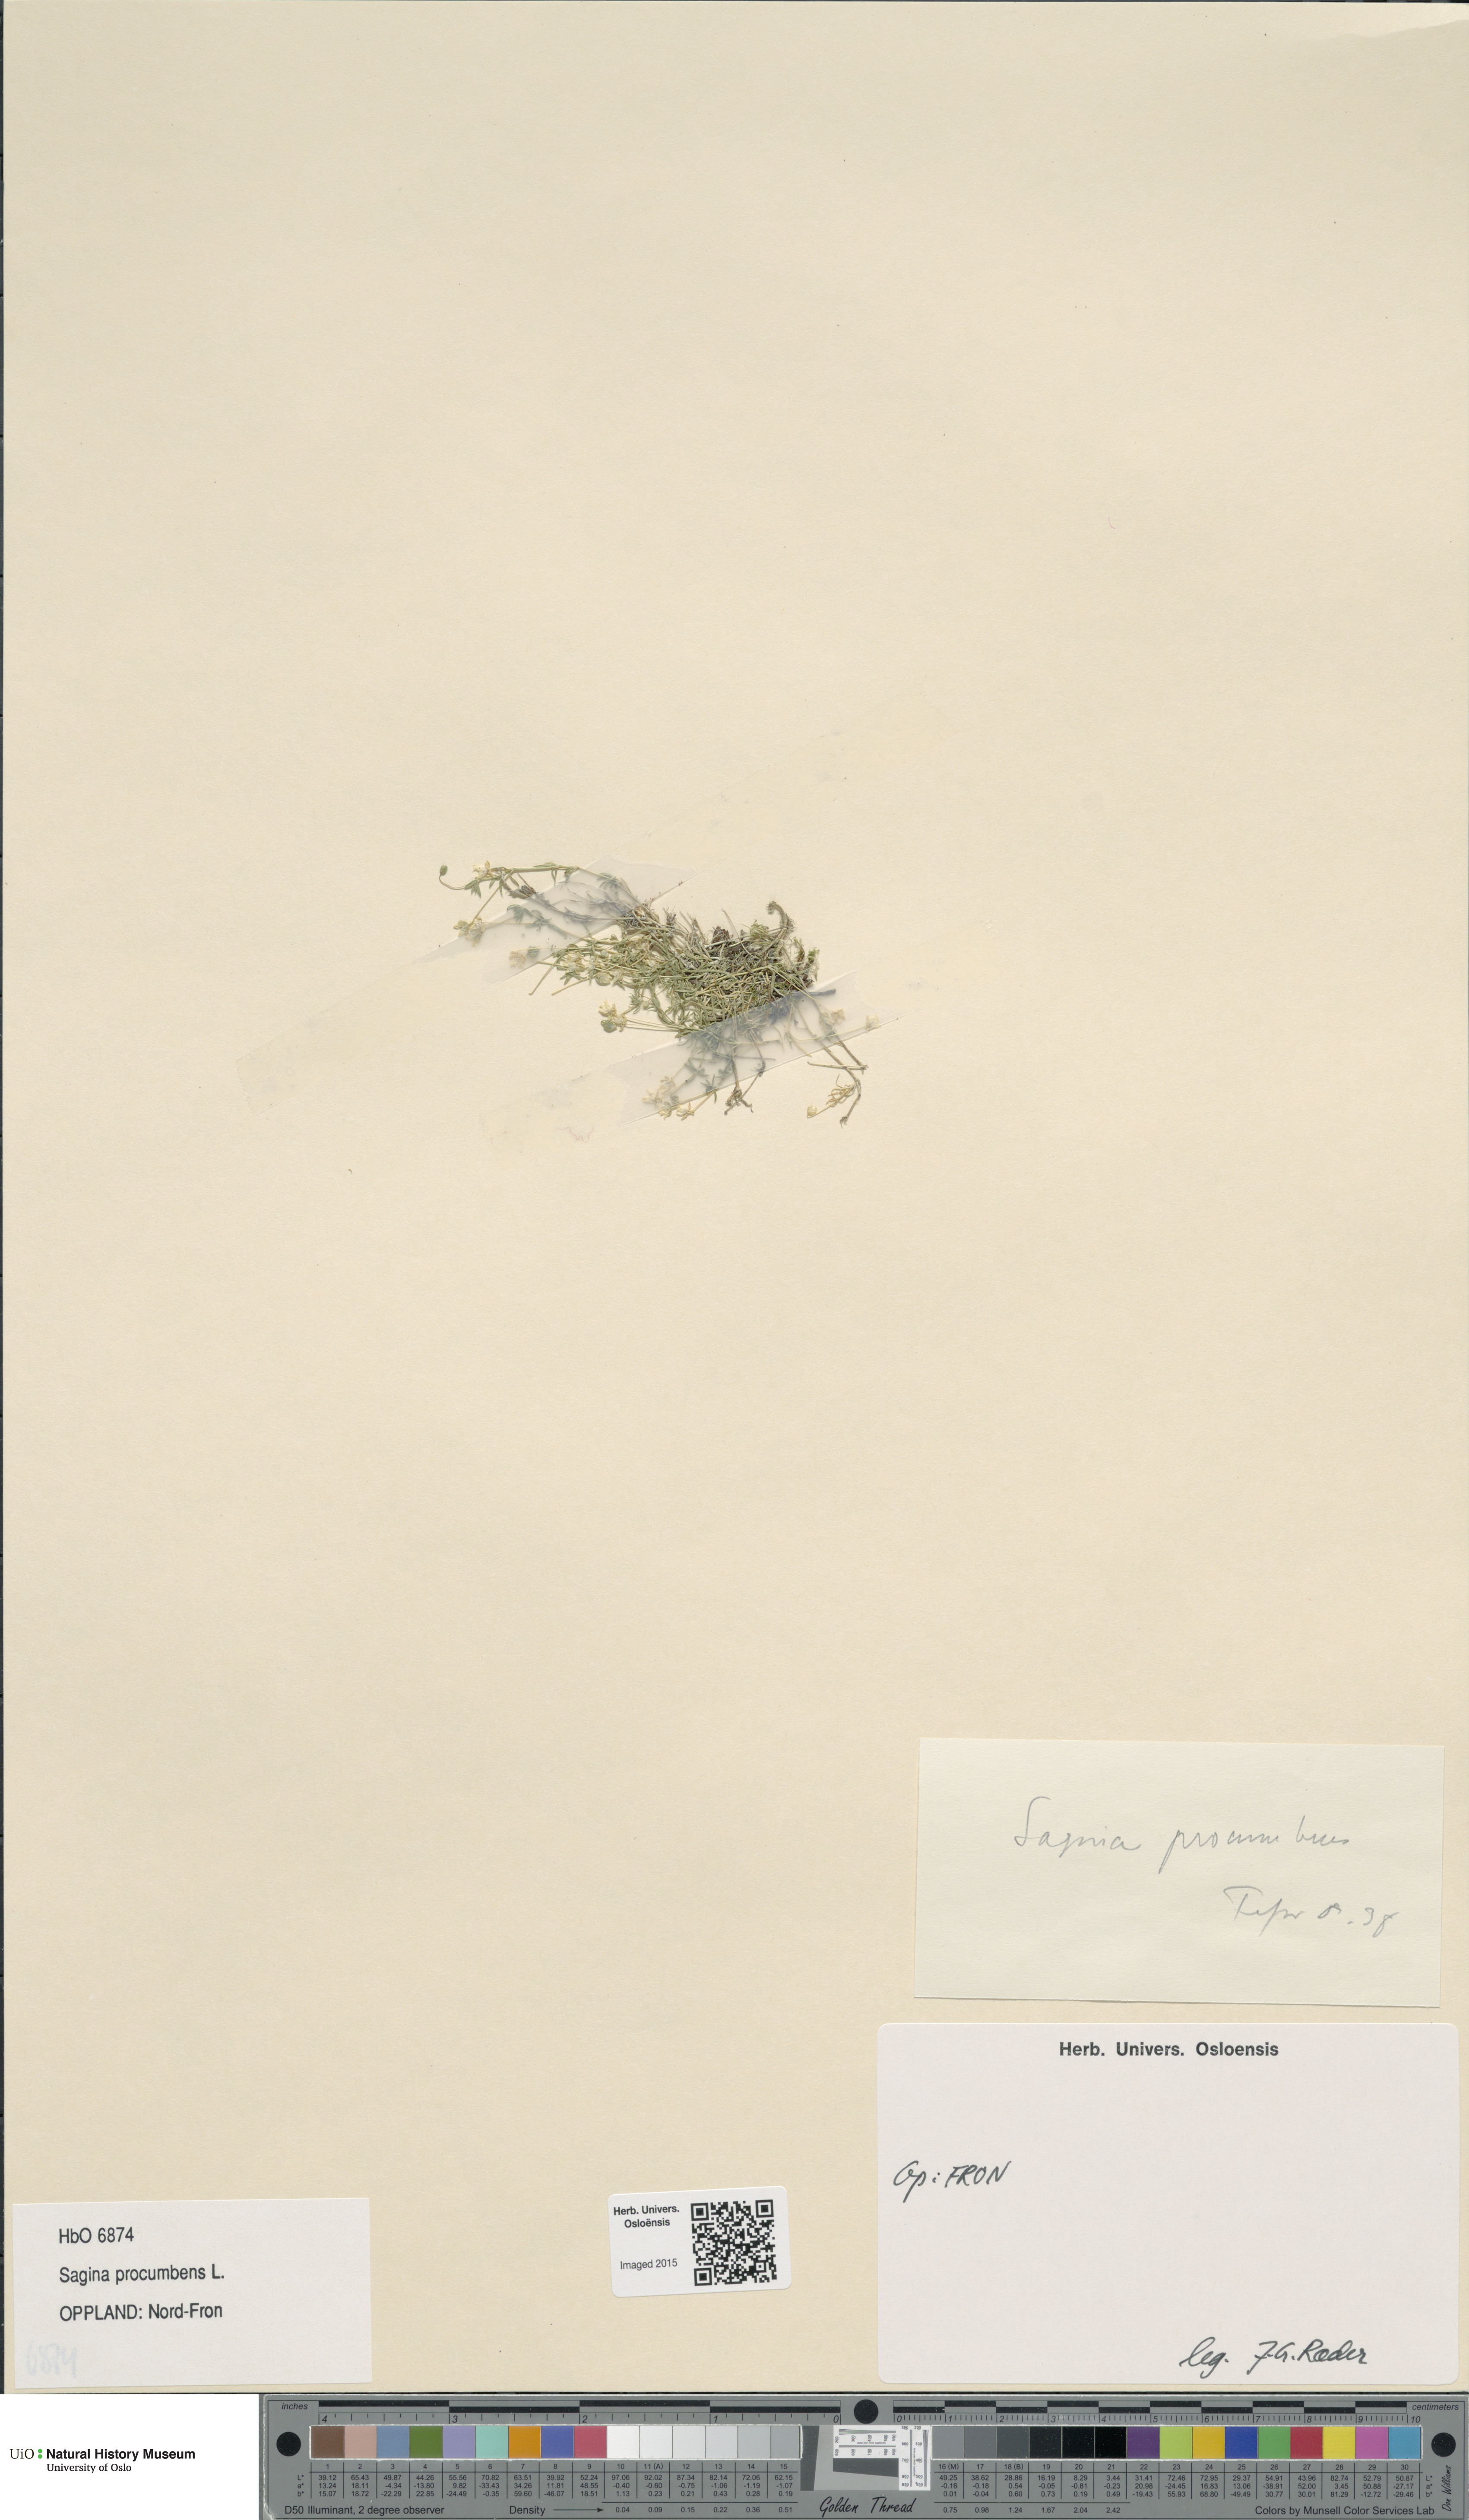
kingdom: Plantae
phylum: Tracheophyta
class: Magnoliopsida
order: Caryophyllales
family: Caryophyllaceae
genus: Sagina
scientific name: Sagina procumbens
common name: Procumbent pearlwort
